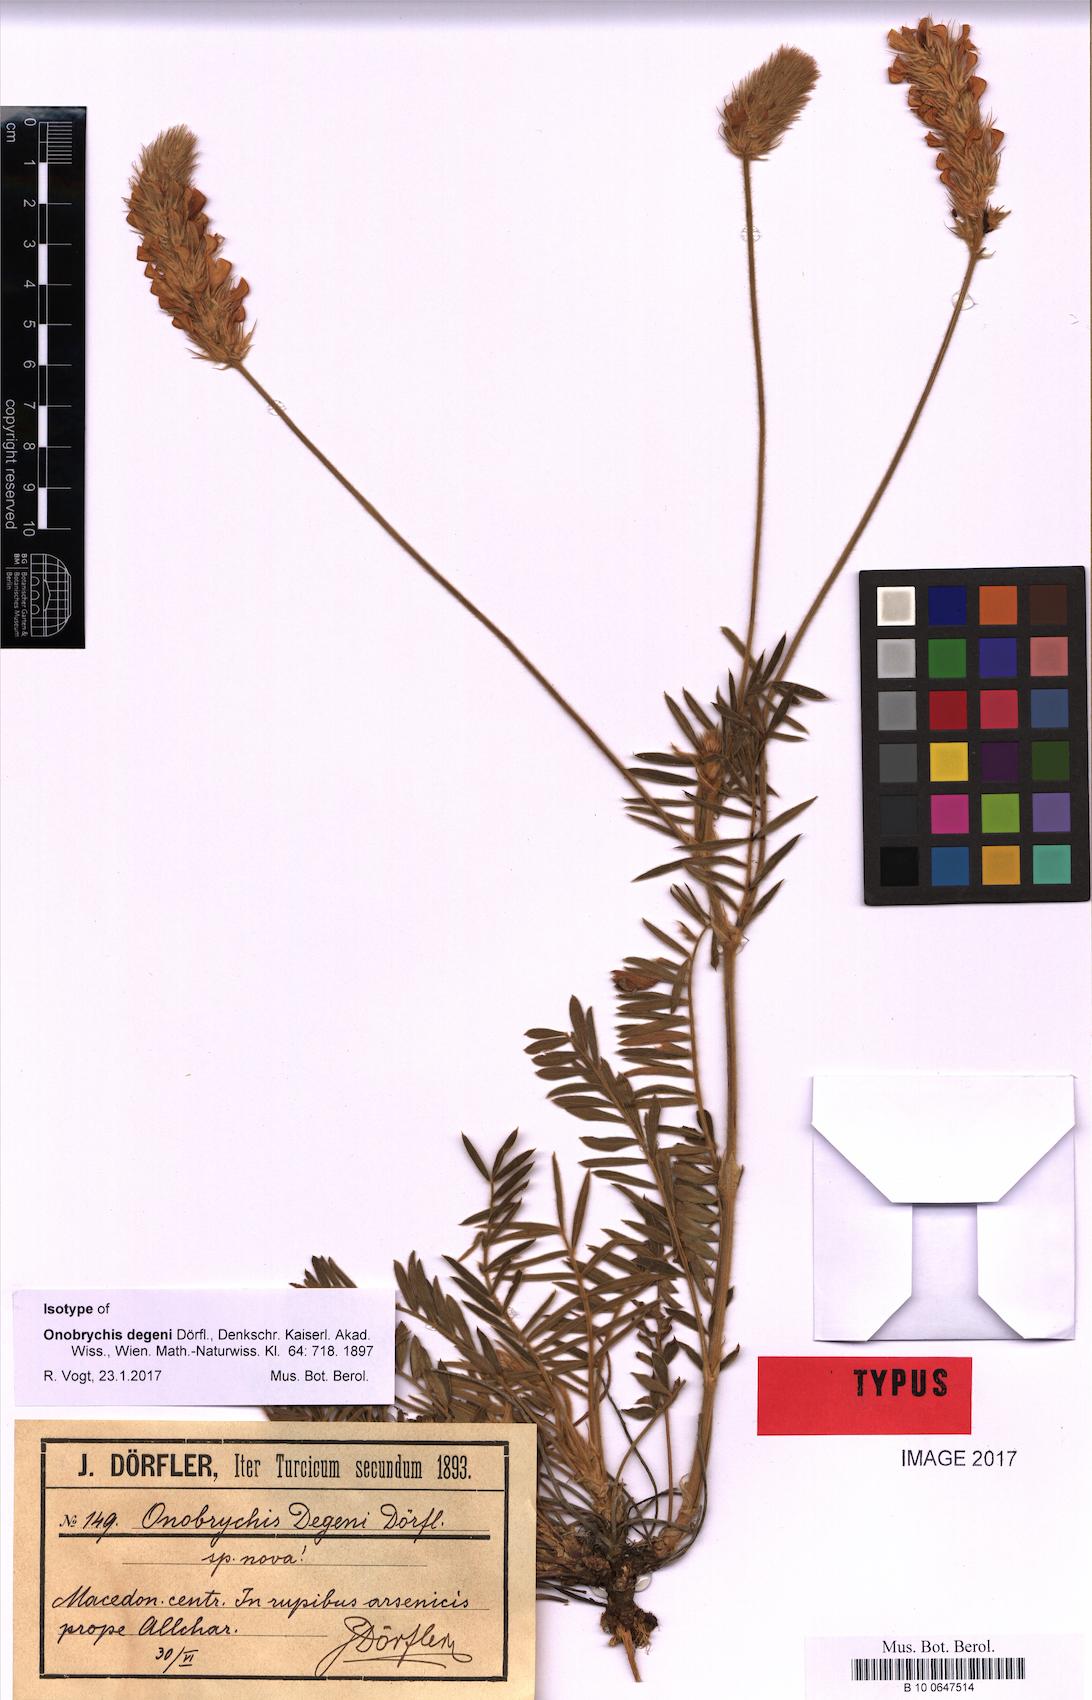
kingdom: Plantae
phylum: Tracheophyta
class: Magnoliopsida
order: Fabales
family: Fabaceae
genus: Onobrychis
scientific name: Onobrychis degenii
